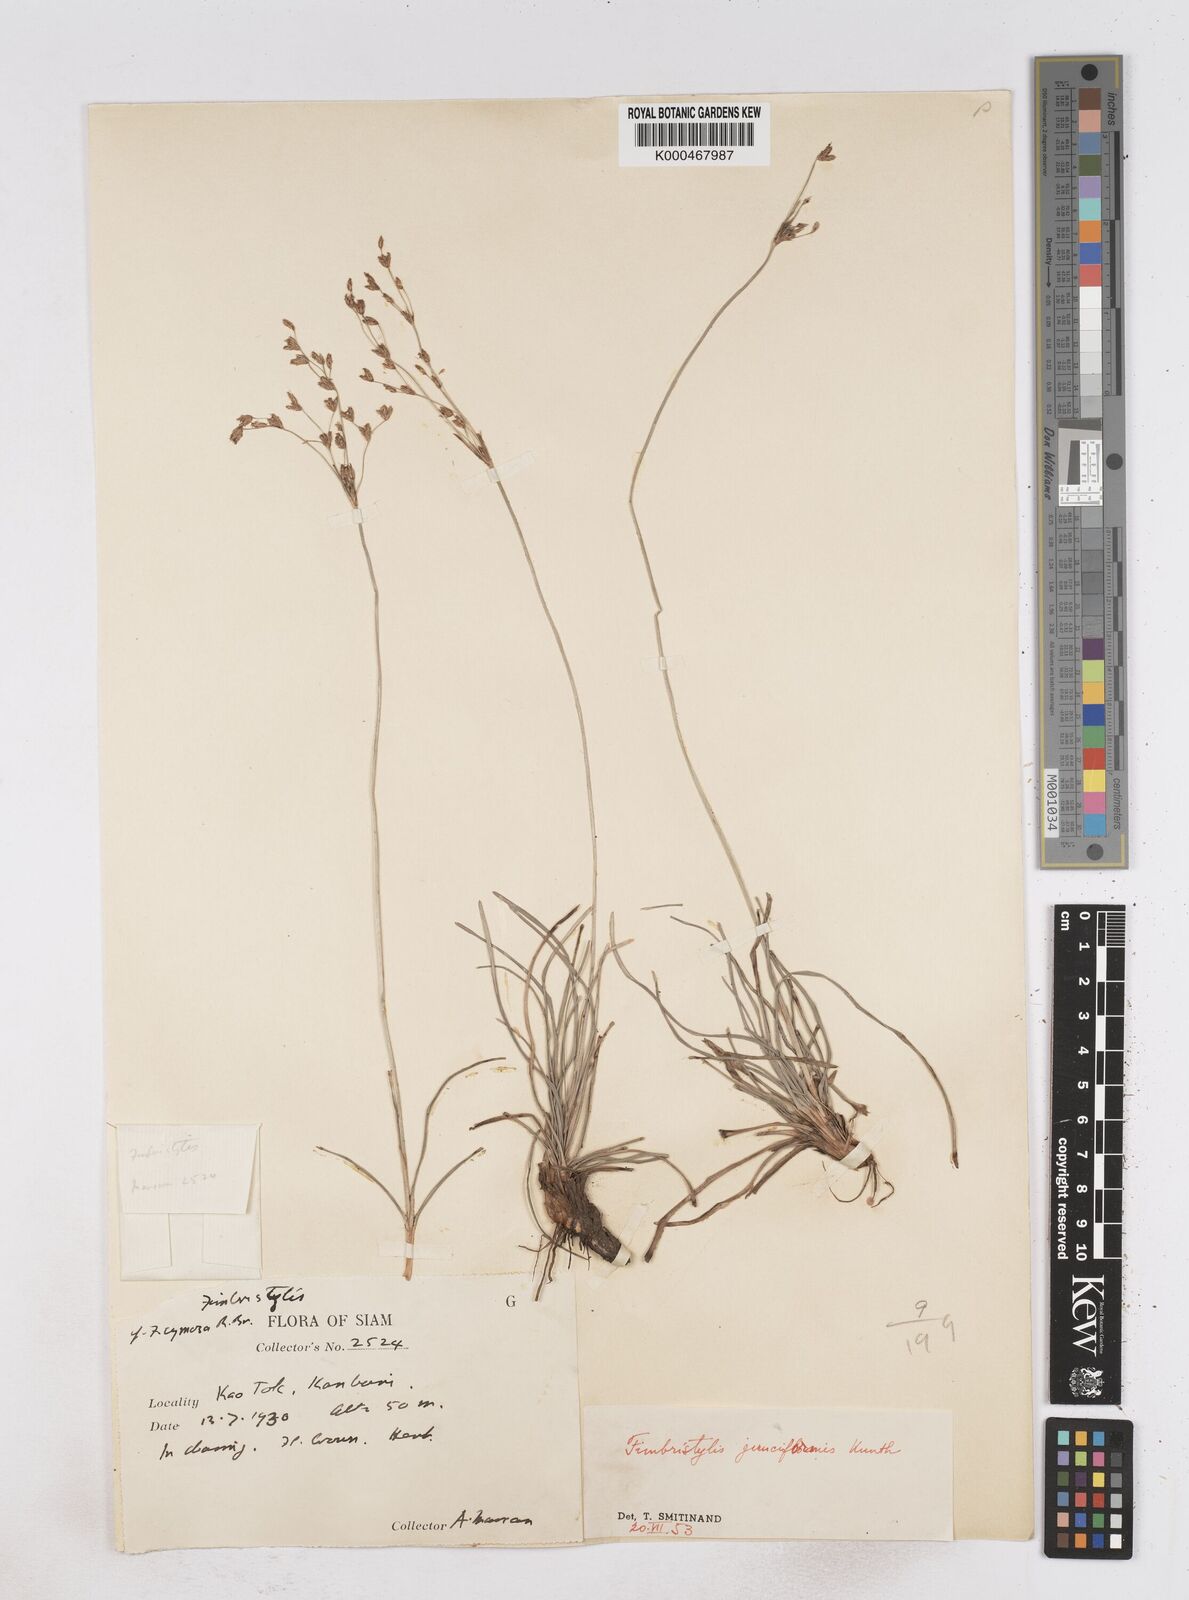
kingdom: Plantae
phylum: Tracheophyta
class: Liliopsida
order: Poales
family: Cyperaceae
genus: Fimbristylis
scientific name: Fimbristylis cymosa
